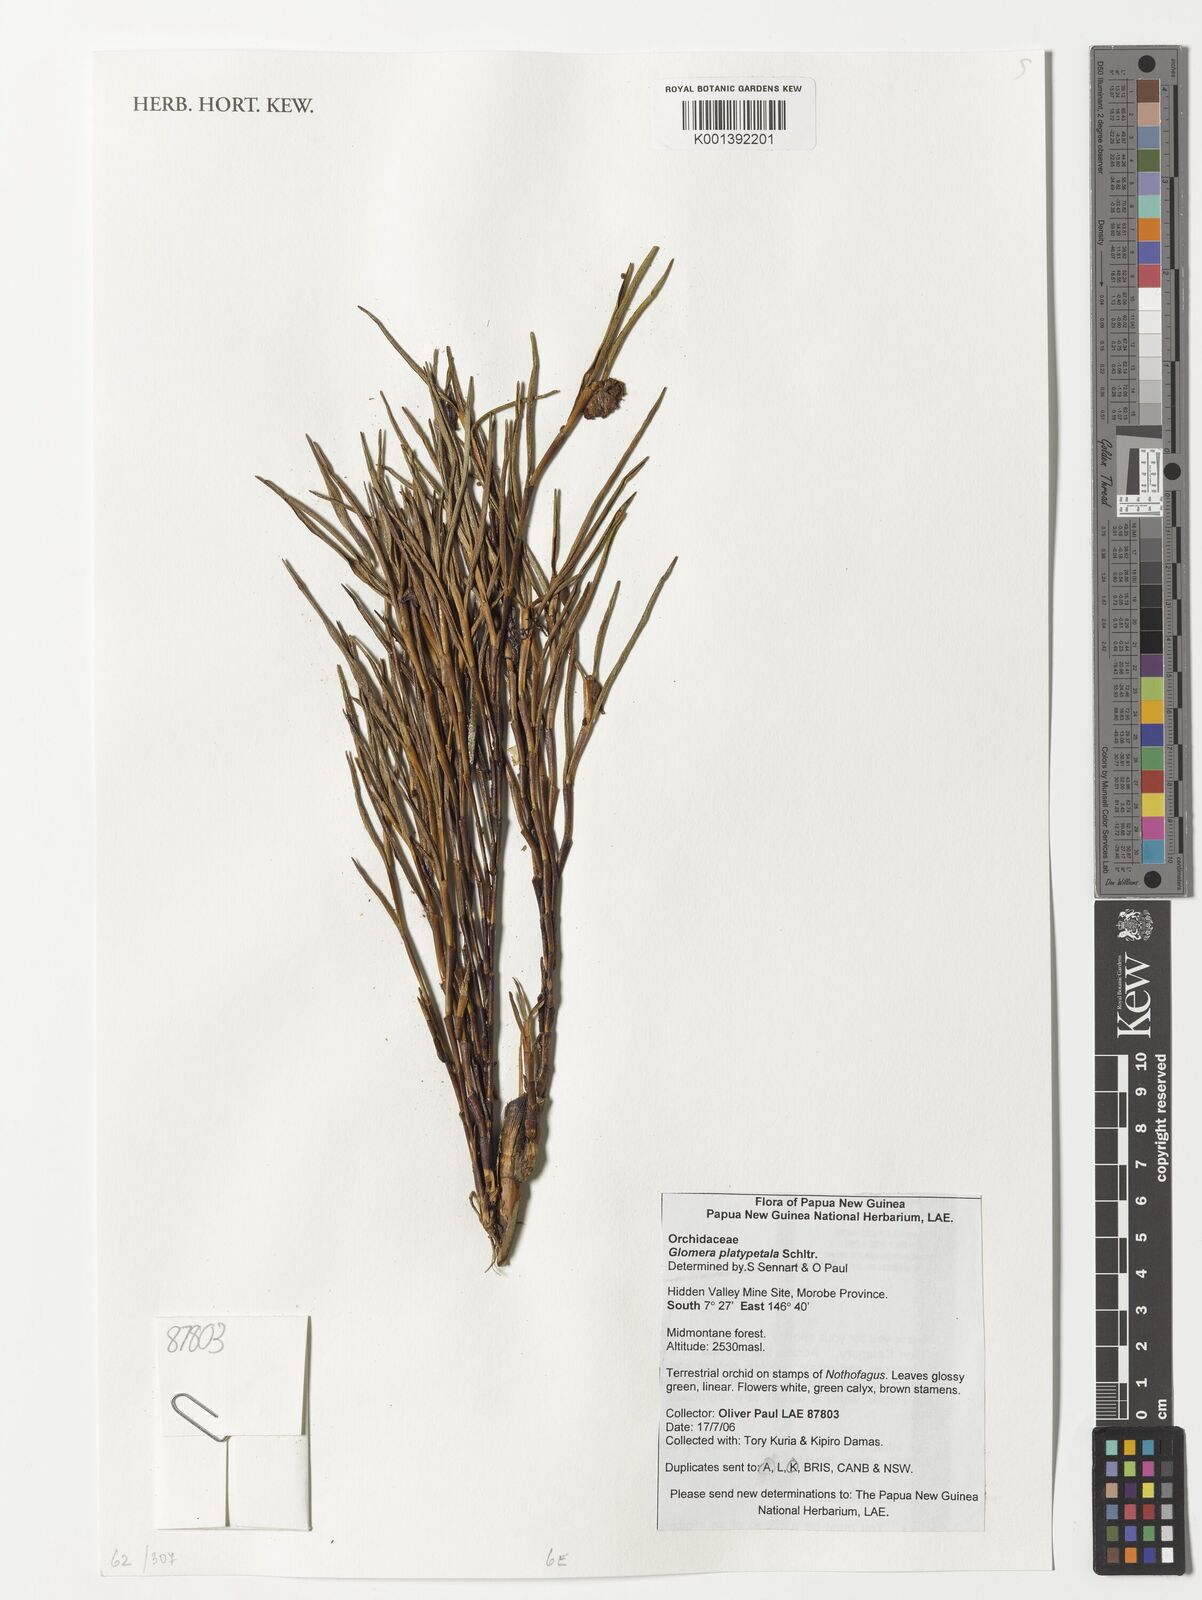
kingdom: Plantae
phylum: Tracheophyta
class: Liliopsida
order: Asparagales
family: Orchidaceae
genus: Glomera
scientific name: Glomera platypetala
